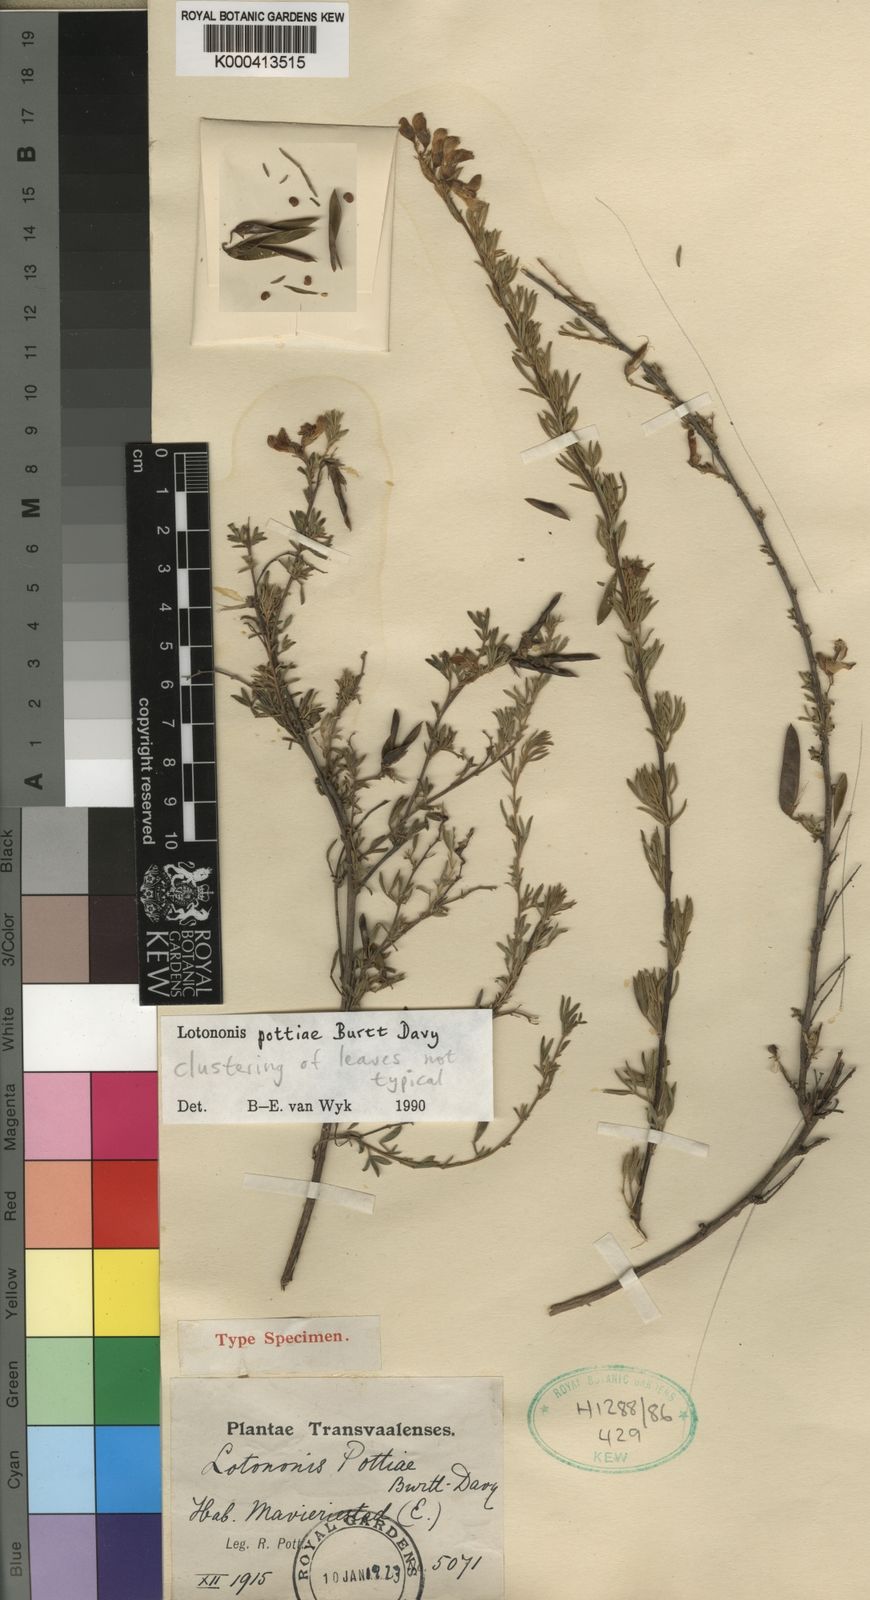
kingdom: Plantae
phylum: Tracheophyta
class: Magnoliopsida
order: Fabales
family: Fabaceae
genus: Lotononis
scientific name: Lotononis pottiae
